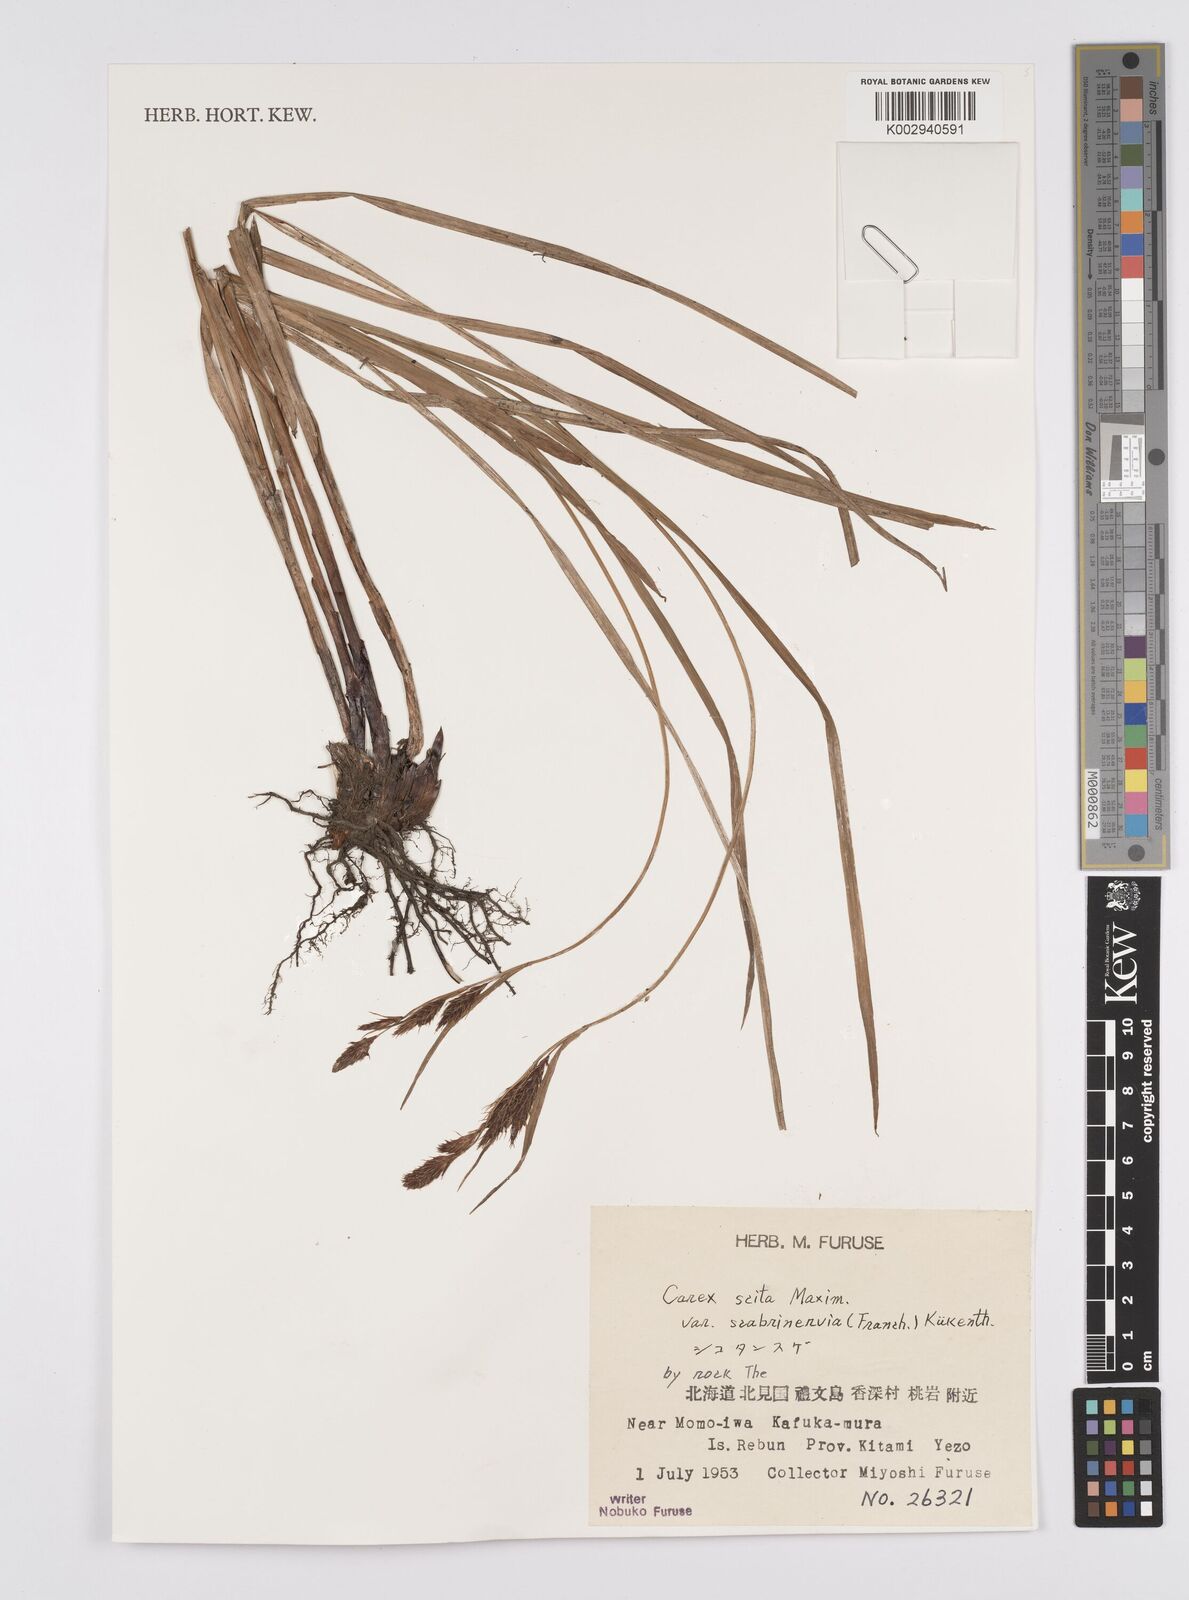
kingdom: Plantae
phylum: Tracheophyta
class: Liliopsida
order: Poales
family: Cyperaceae
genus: Carex
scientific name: Carex scita
